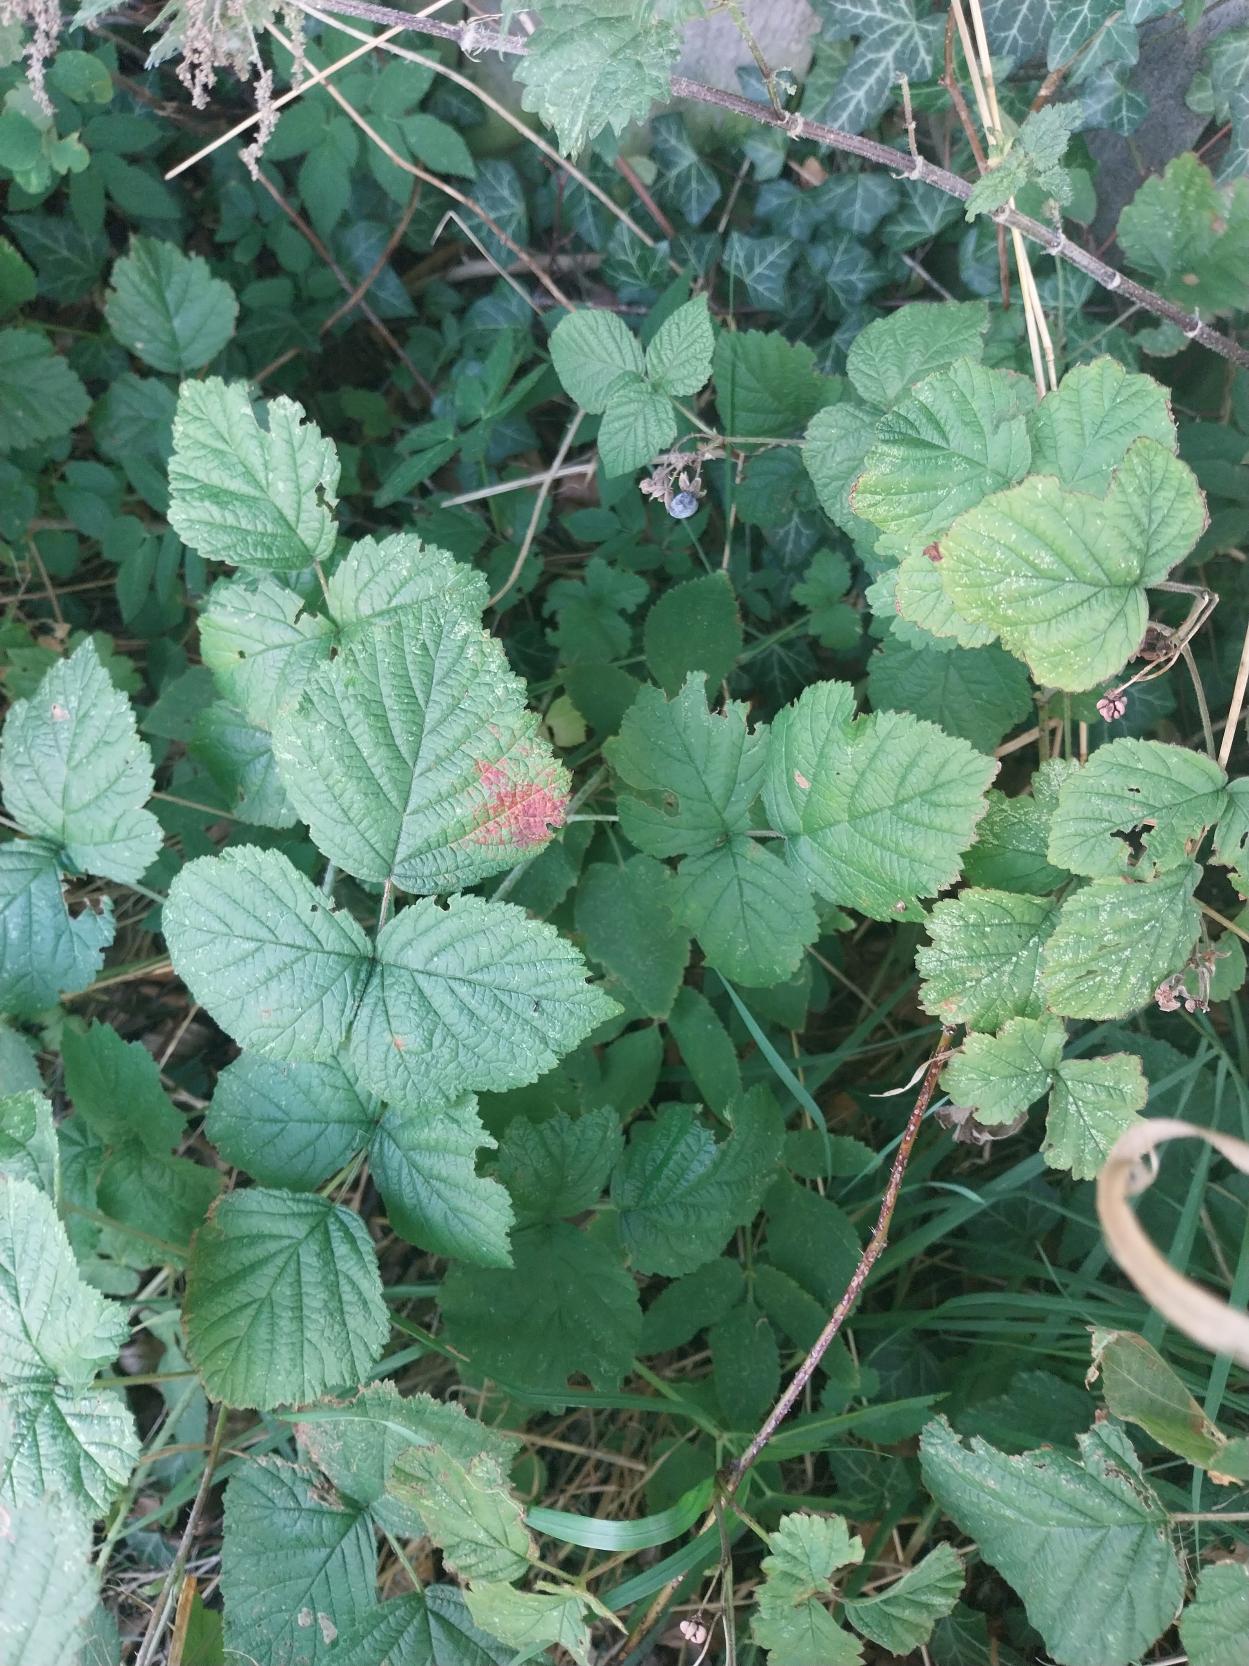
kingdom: Plantae
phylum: Tracheophyta
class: Magnoliopsida
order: Rosales
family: Rosaceae
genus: Rubus
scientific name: Rubus caesius
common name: Korbær
